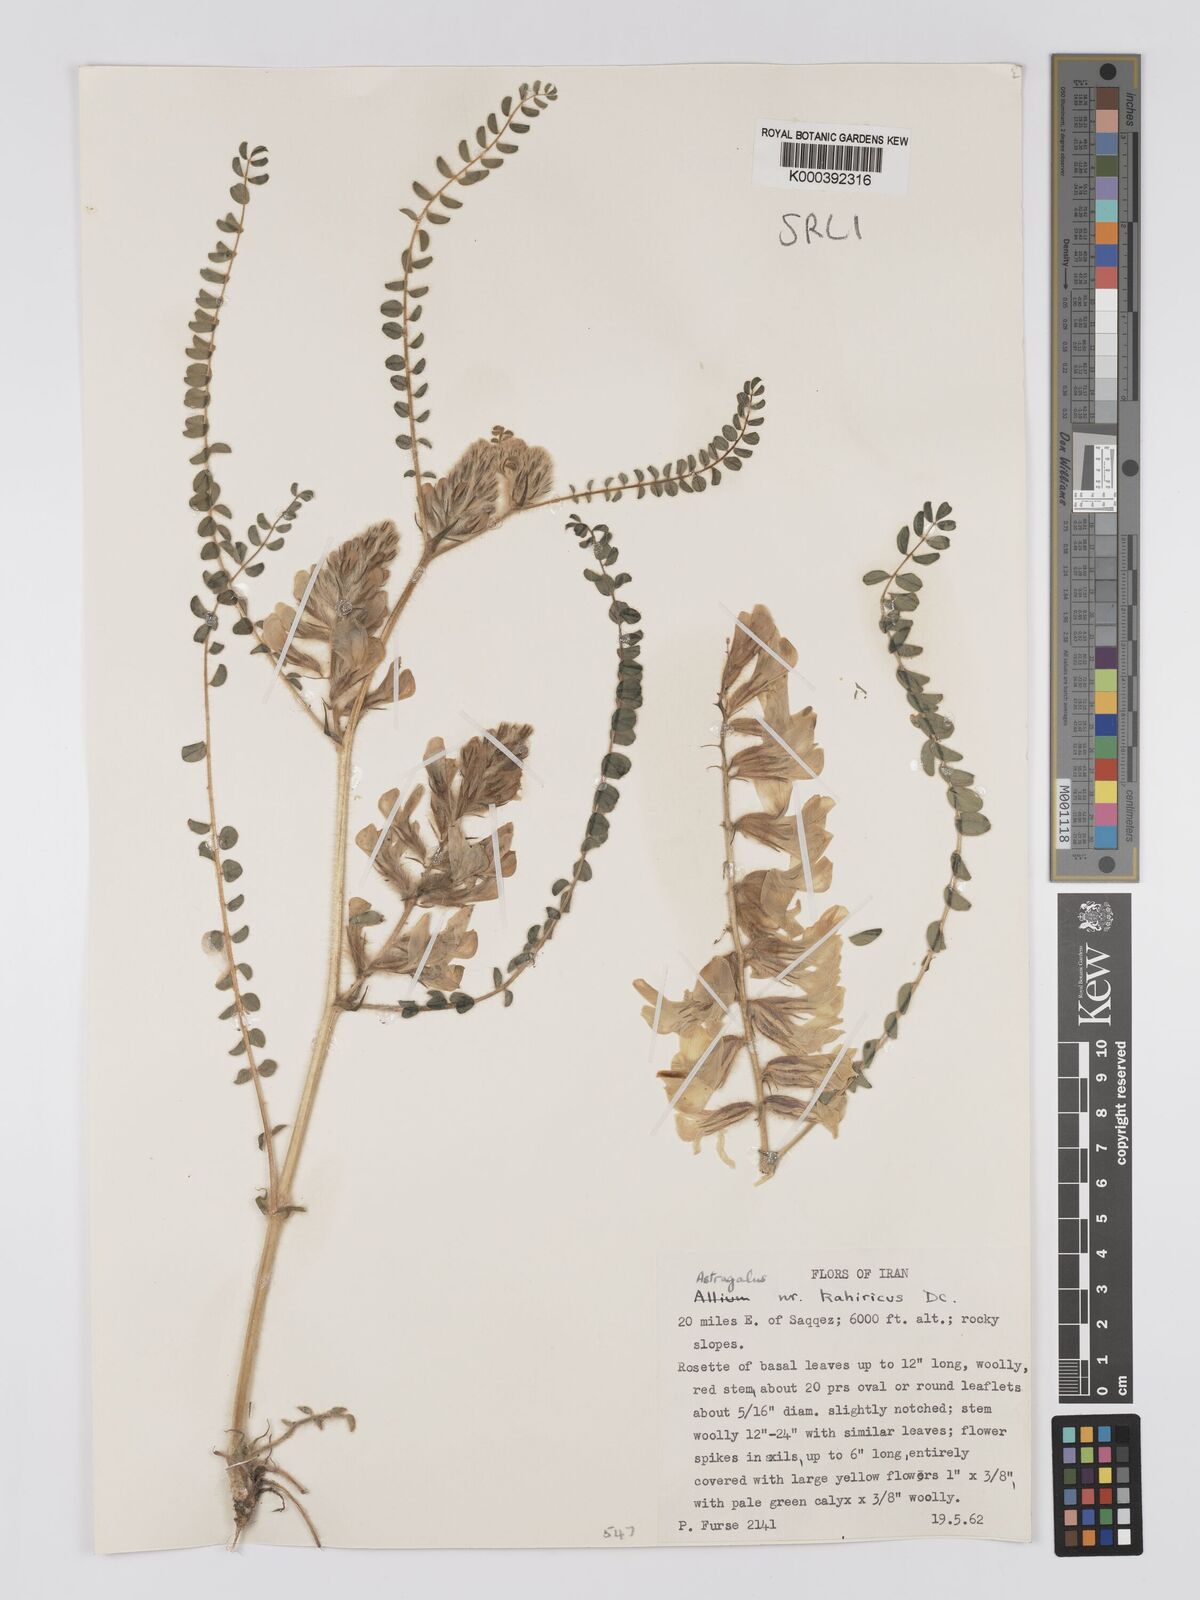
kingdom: Plantae
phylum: Tracheophyta
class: Magnoliopsida
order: Fabales
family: Fabaceae
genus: Astragalus
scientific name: Astragalus kahiricus
